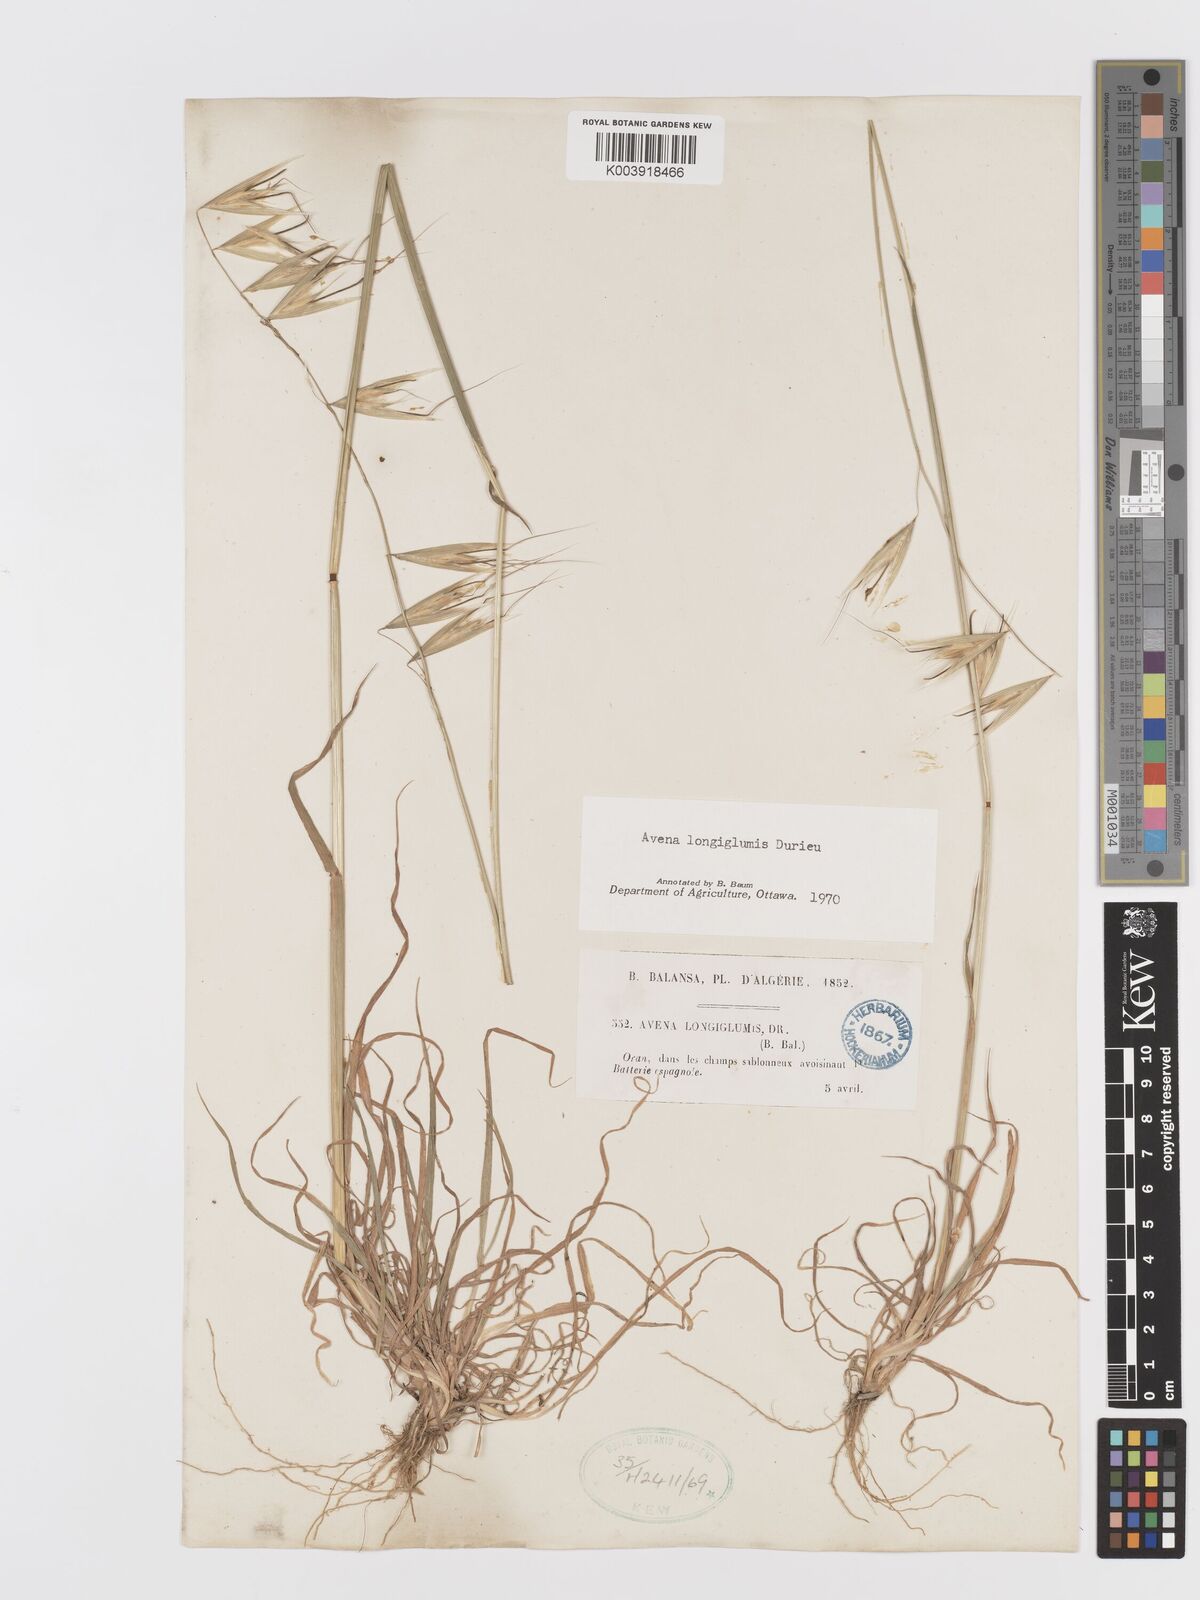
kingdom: Plantae
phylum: Tracheophyta
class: Liliopsida
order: Poales
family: Poaceae
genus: Avena
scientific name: Avena longiglumis
